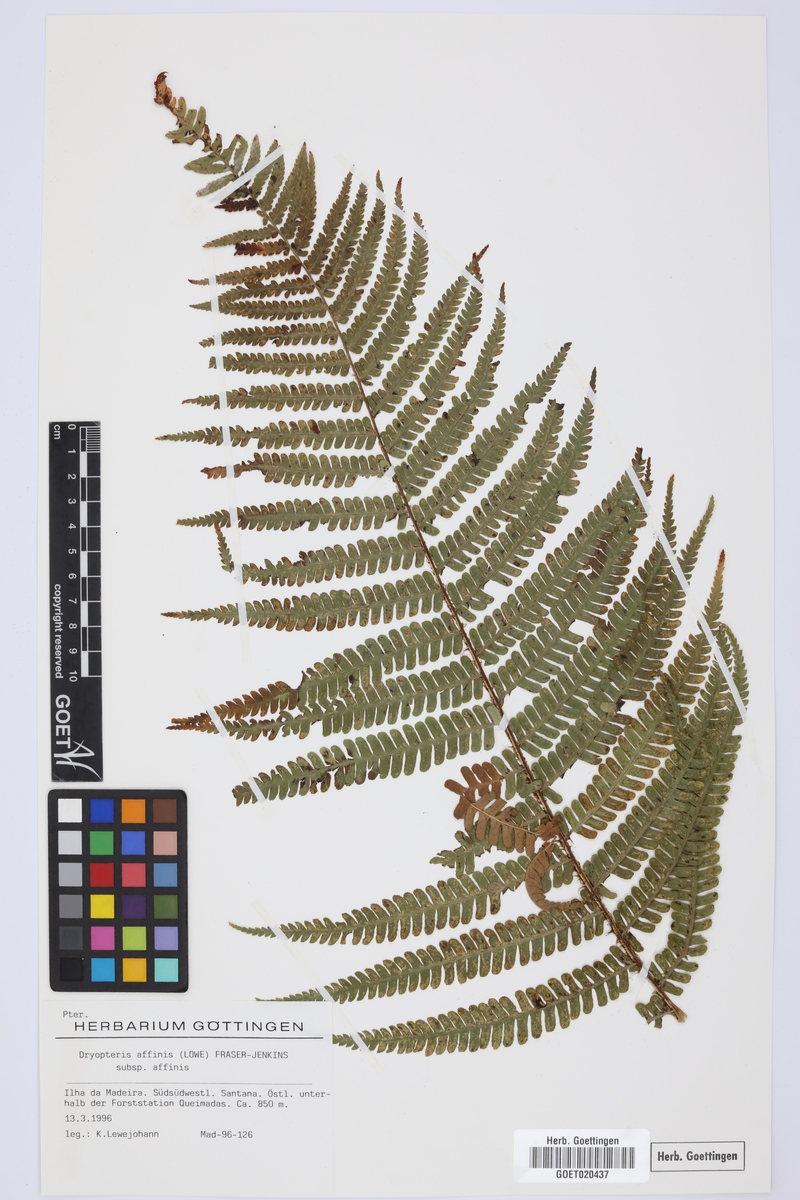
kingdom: Plantae
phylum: Tracheophyta
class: Polypodiopsida
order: Polypodiales
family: Dryopteridaceae
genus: Dryopteris
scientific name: Dryopteris affinis
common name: Scaly male fern
